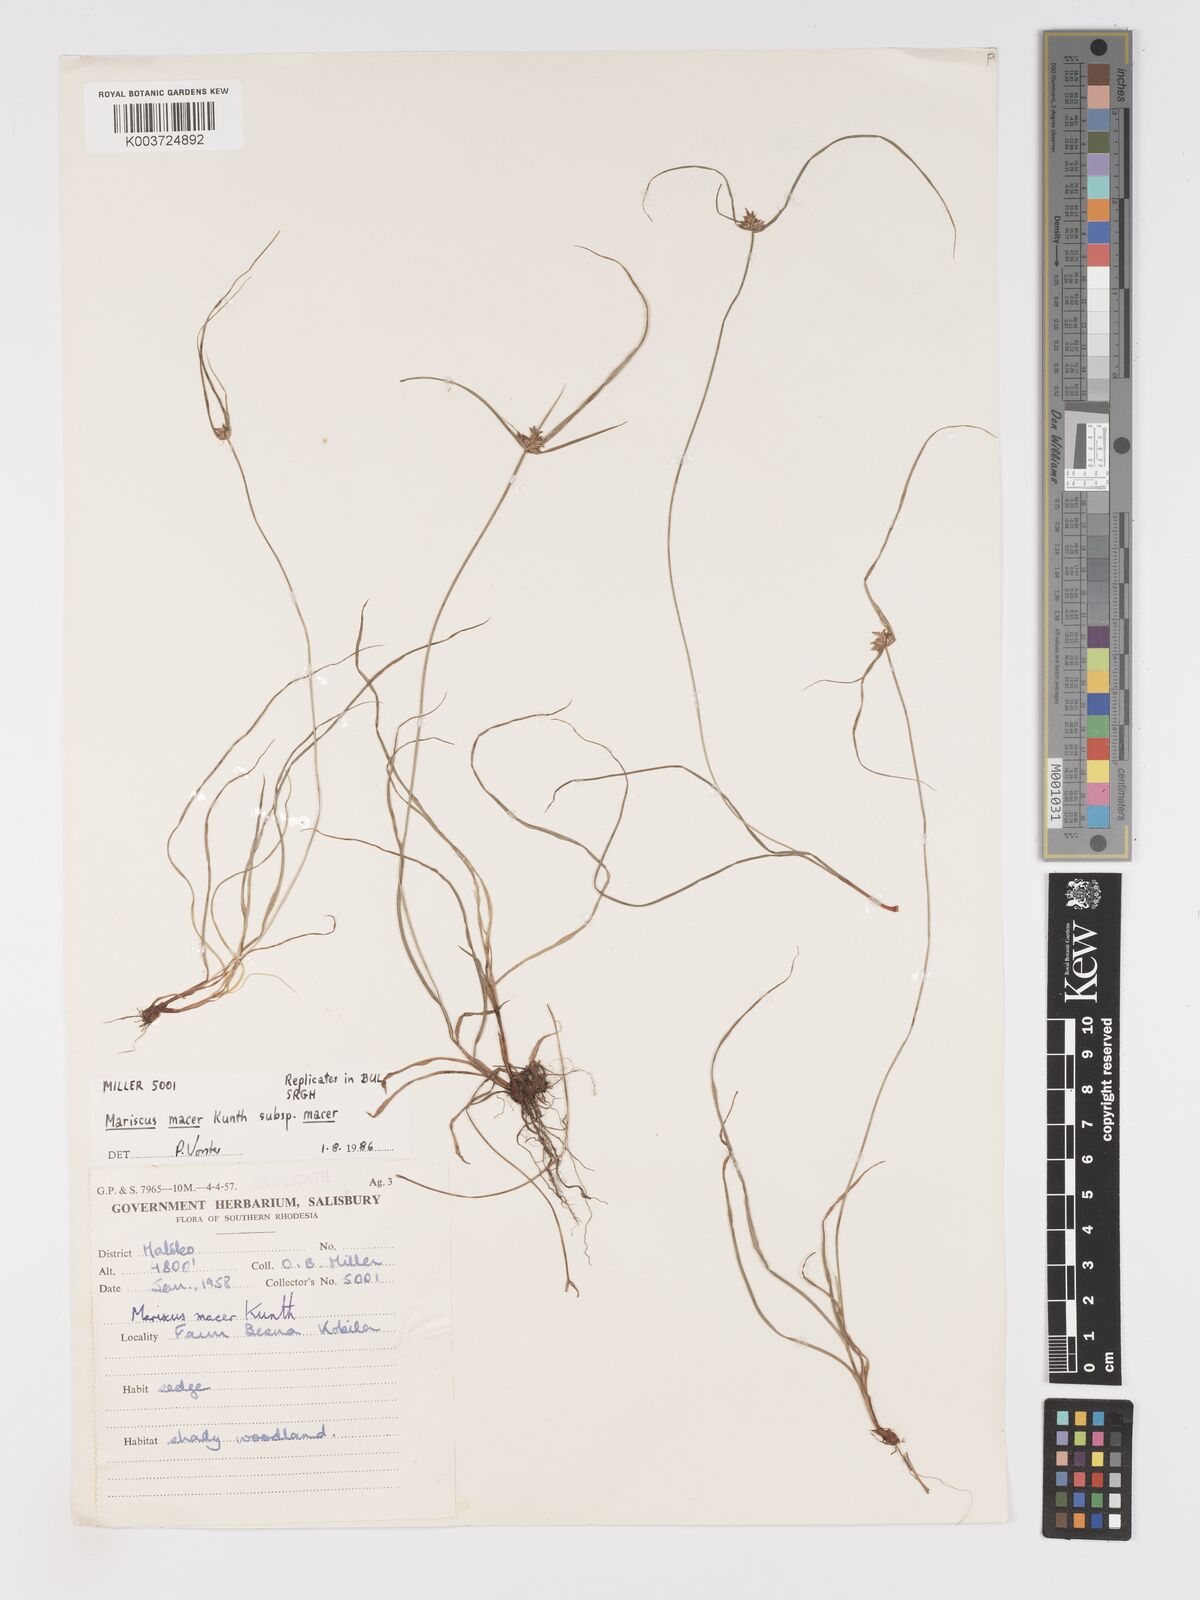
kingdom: Plantae
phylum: Tracheophyta
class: Liliopsida
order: Poales
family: Cyperaceae
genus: Cyperus
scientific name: Cyperus pseudoflavus
